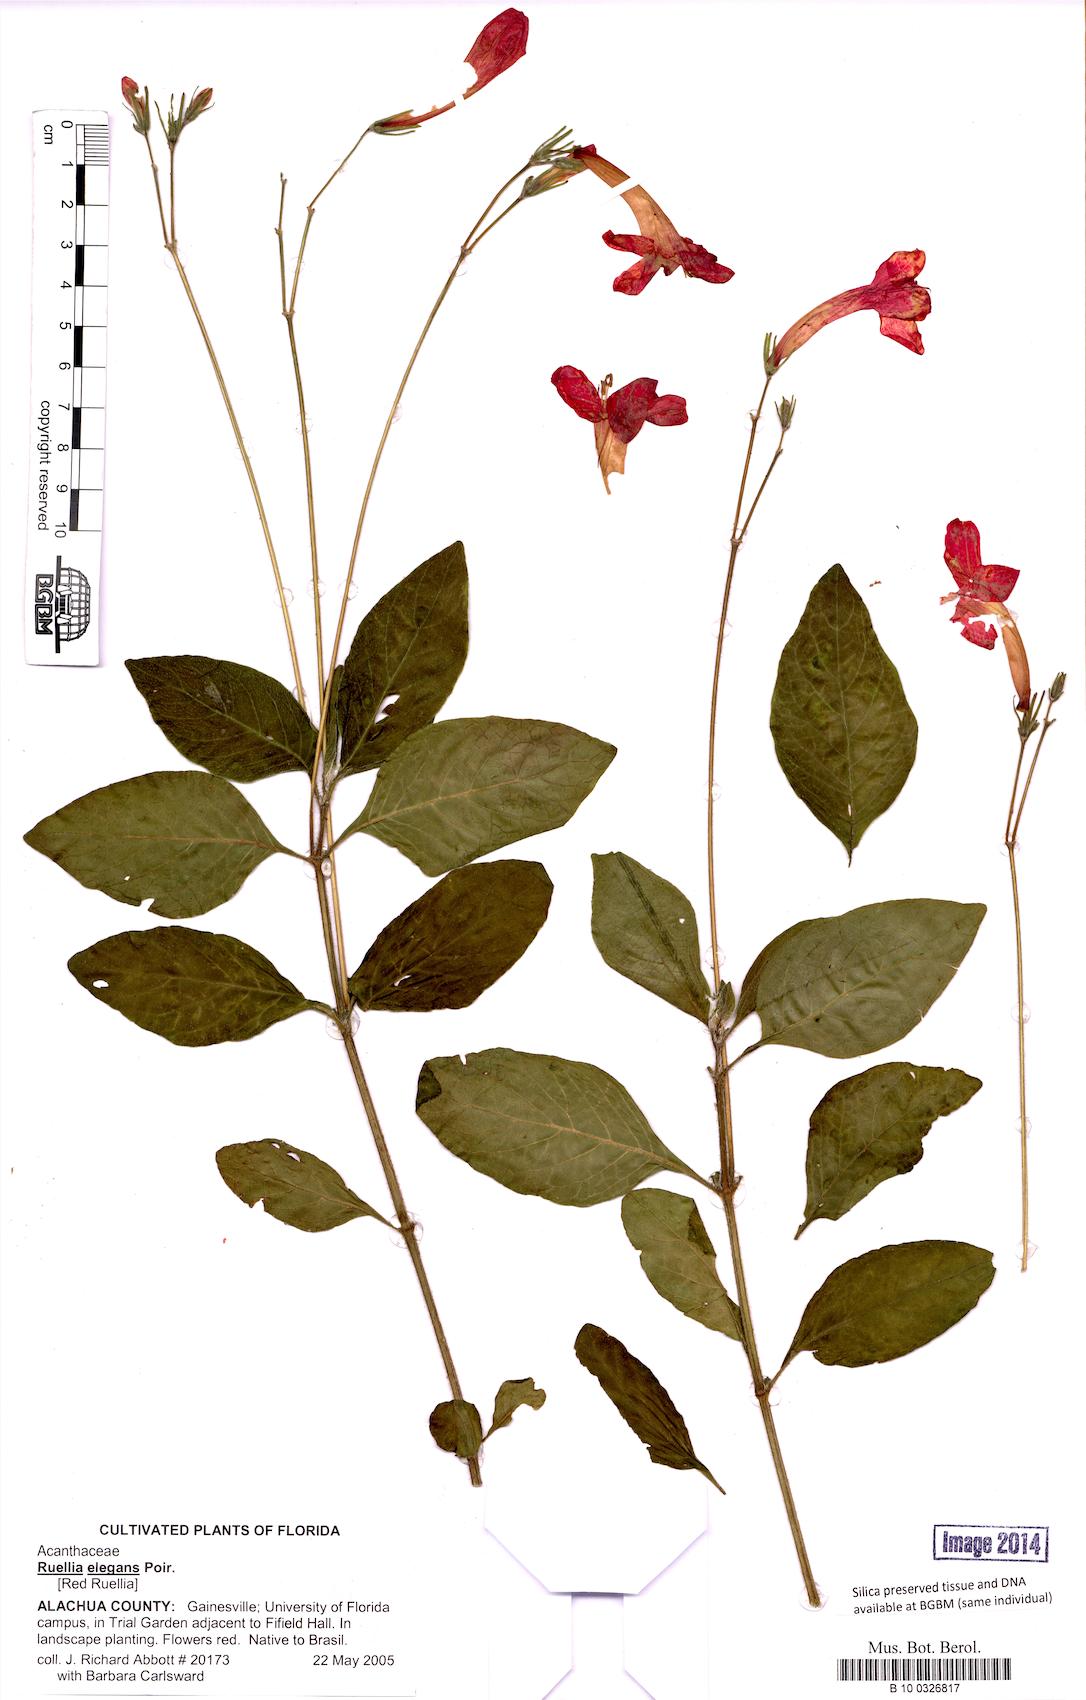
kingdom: Plantae
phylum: Tracheophyta
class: Magnoliopsida
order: Lamiales
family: Acanthaceae
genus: Ruellia
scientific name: Ruellia elegans
